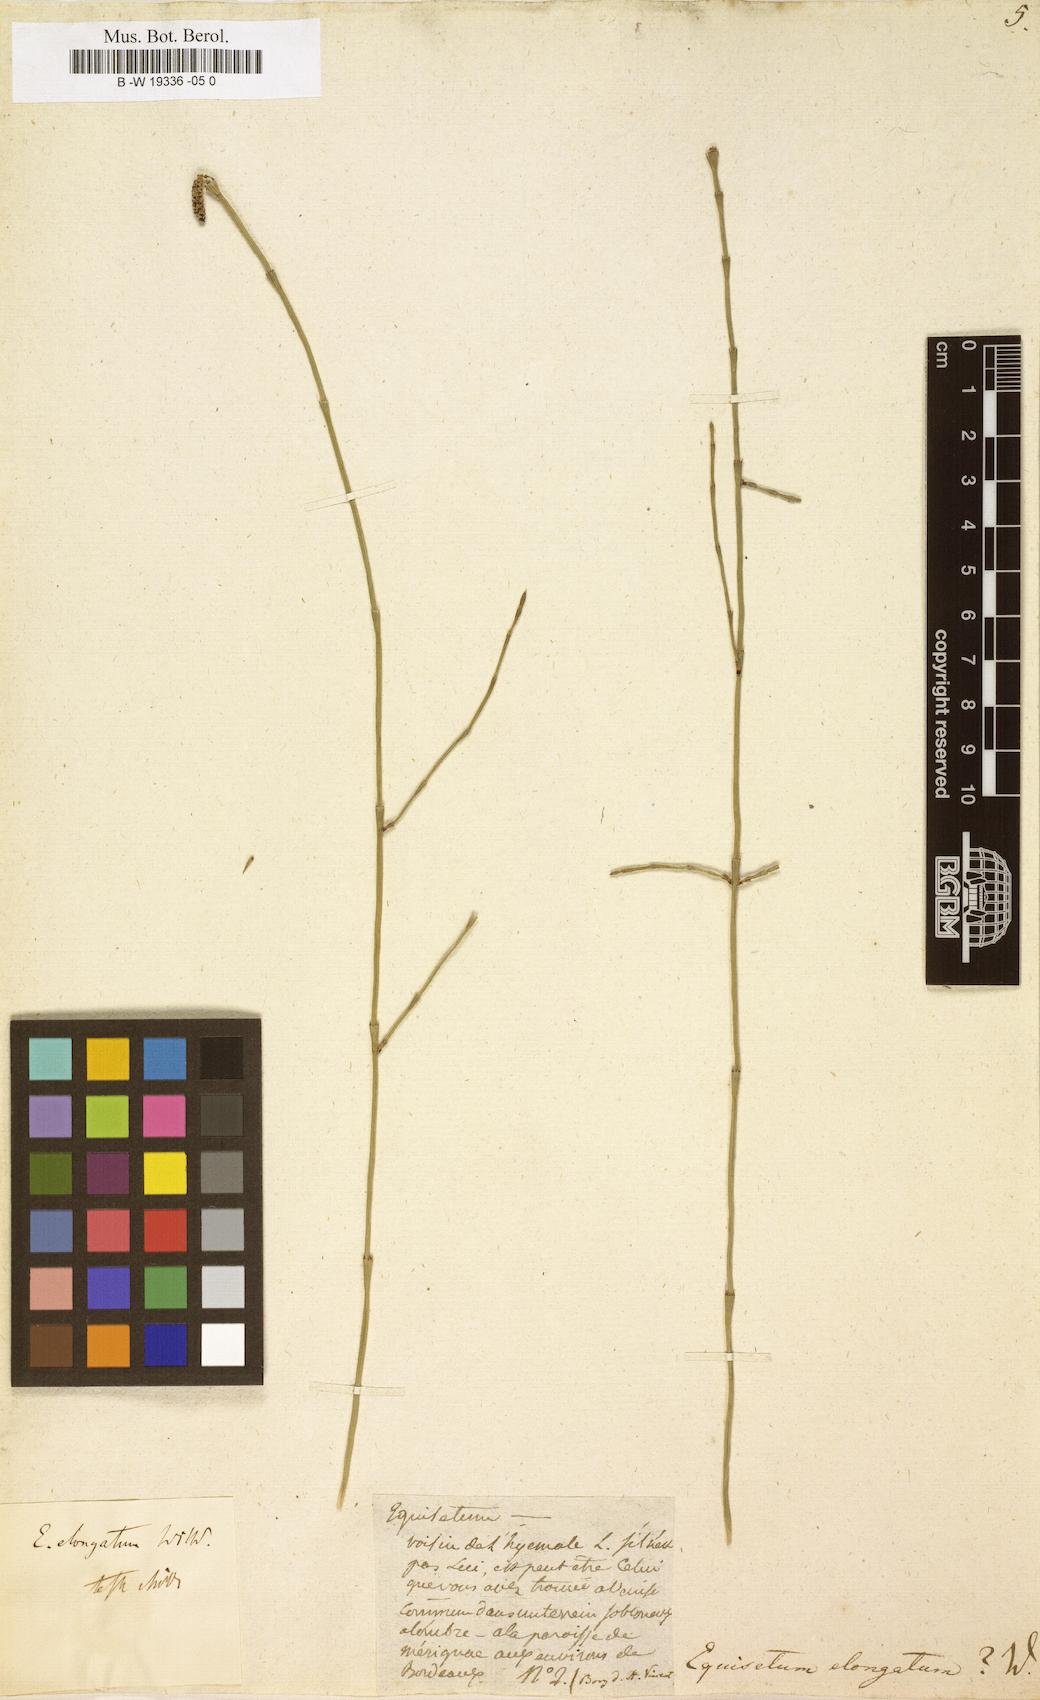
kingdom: Plantae
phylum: Tracheophyta
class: Polypodiopsida
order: Equisetales
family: Equisetaceae
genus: Equisetum
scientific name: Equisetum ramosissimum
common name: Branched horsetail
